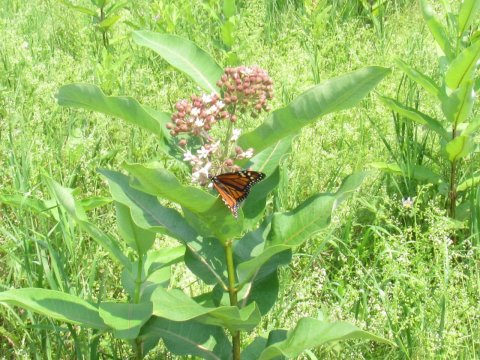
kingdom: Animalia
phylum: Arthropoda
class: Insecta
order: Lepidoptera
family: Nymphalidae
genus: Danaus
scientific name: Danaus plexippus
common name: Monarch
